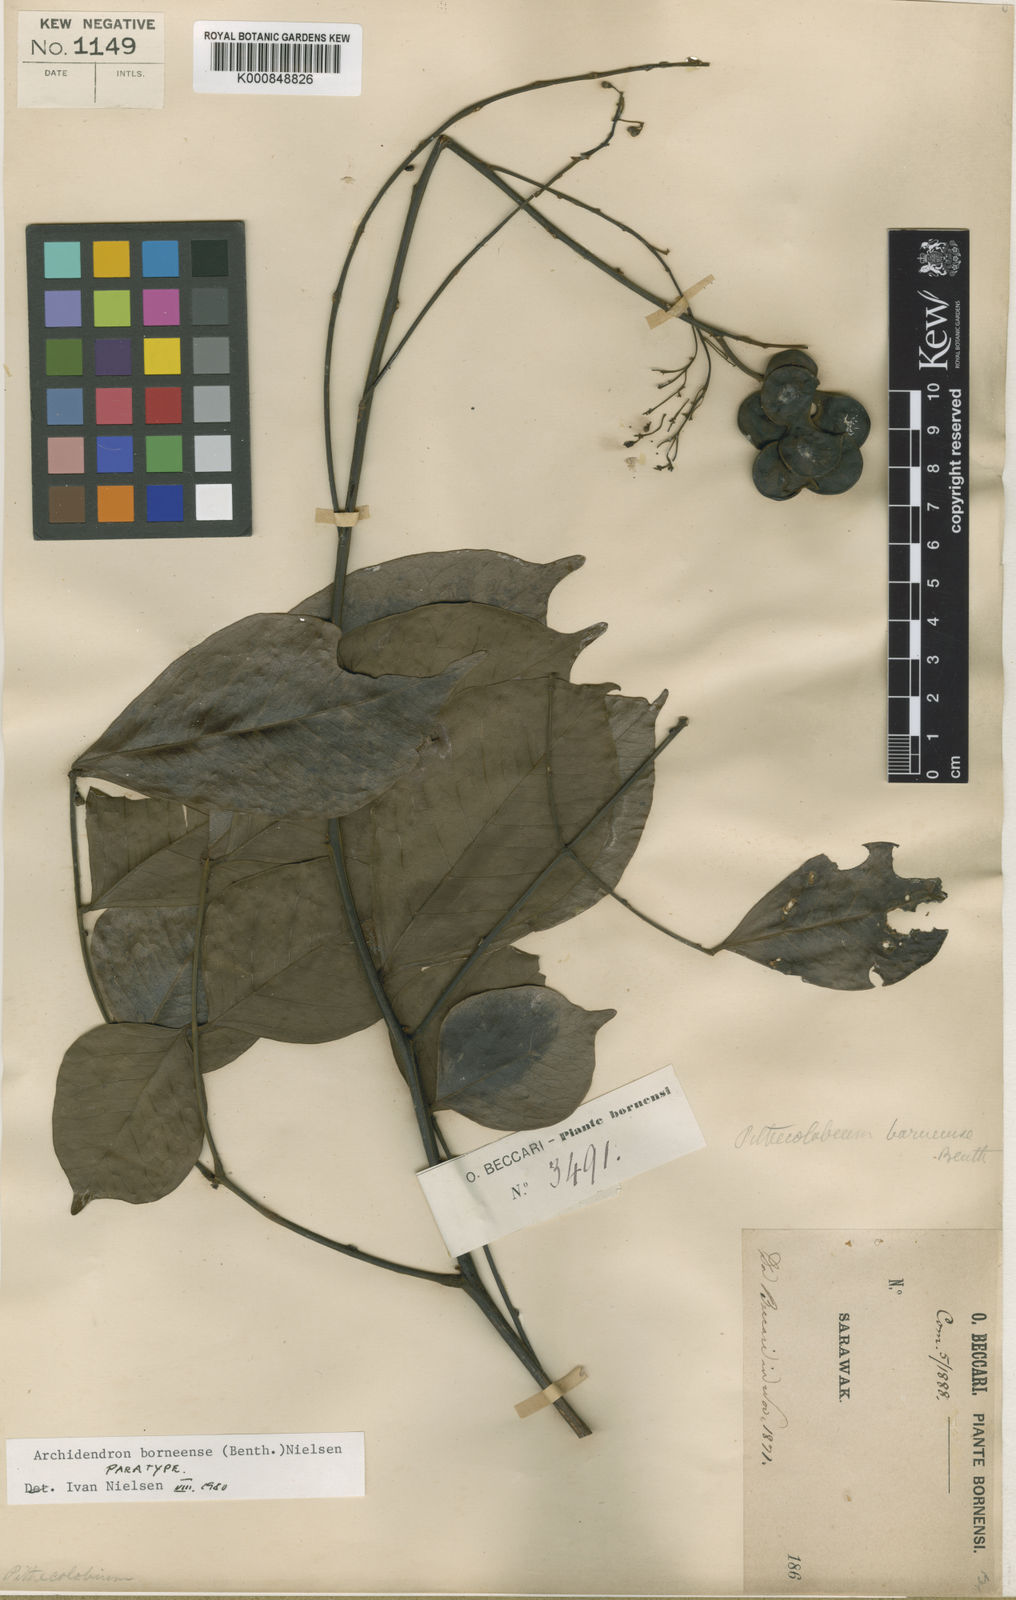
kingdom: Plantae
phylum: Tracheophyta
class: Magnoliopsida
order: Fabales
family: Fabaceae
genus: Archidendron
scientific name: Archidendron borneense
